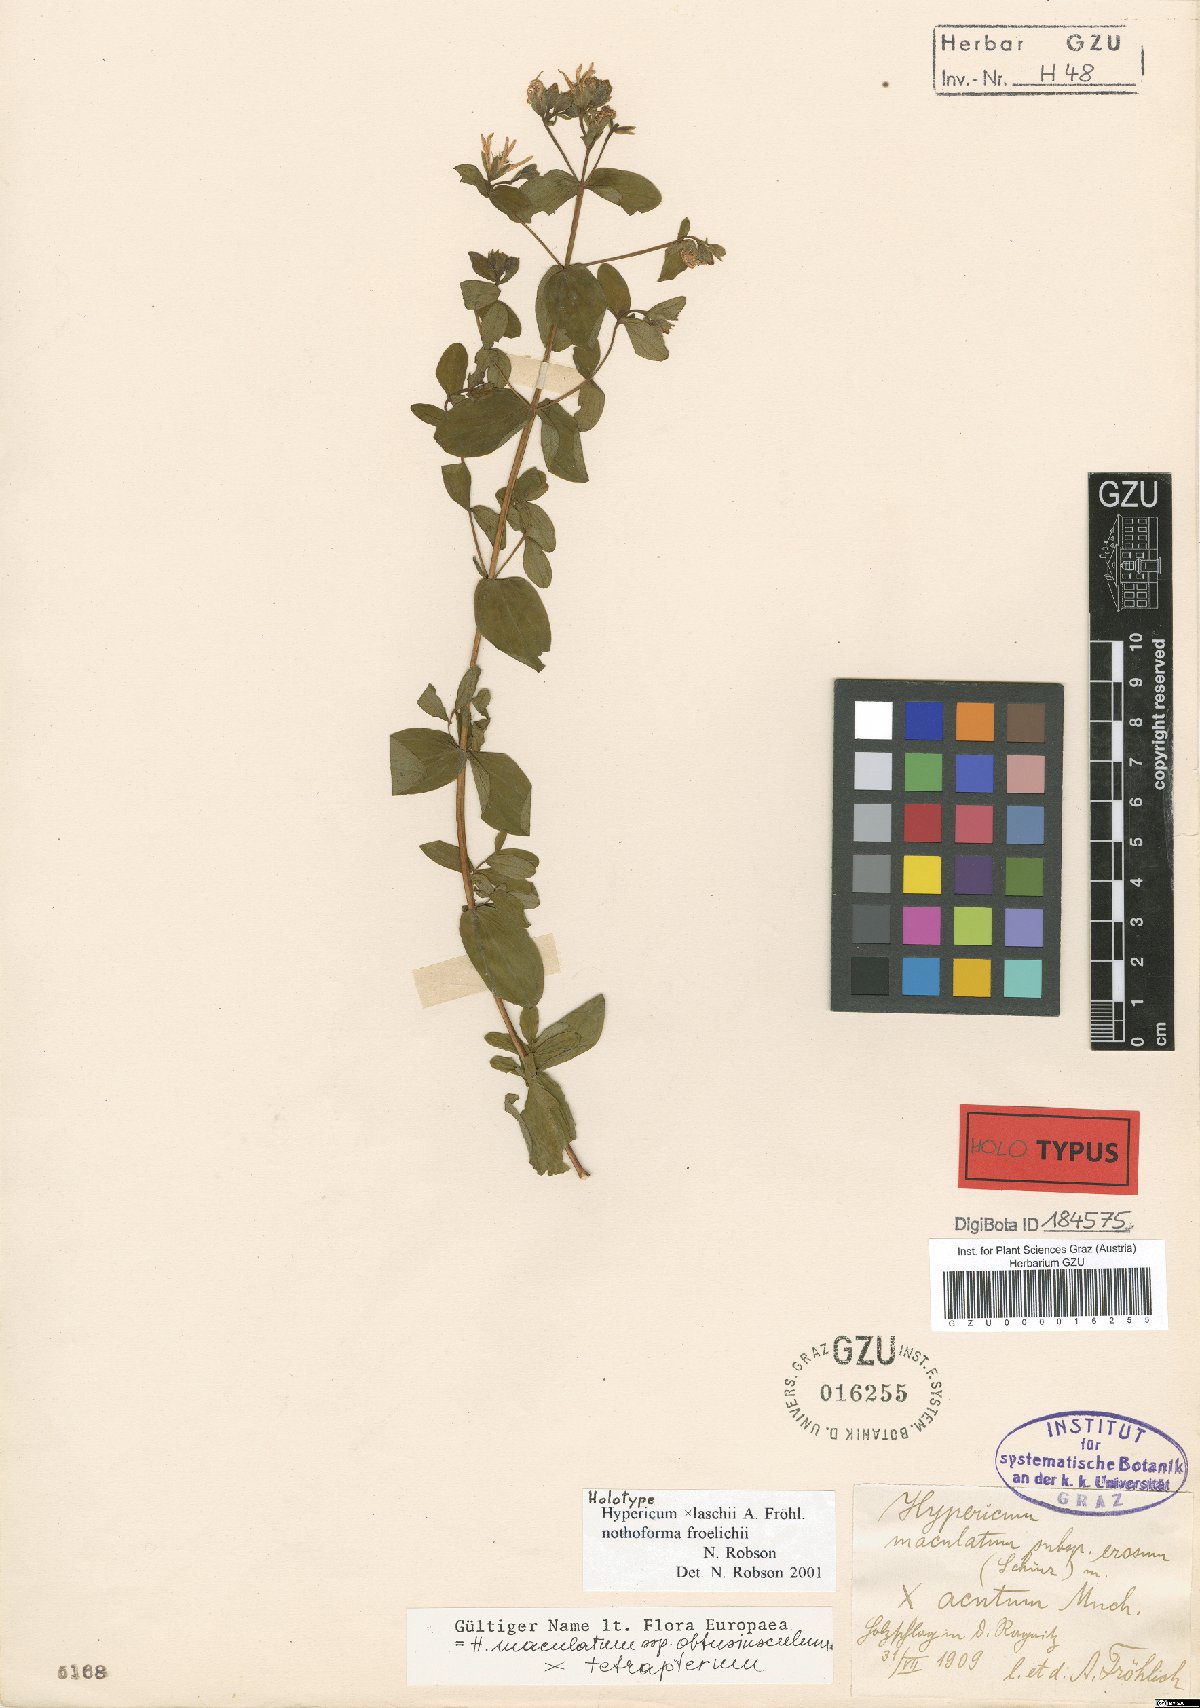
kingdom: Plantae
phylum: Tracheophyta
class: Magnoliopsida
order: Malpighiales
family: Clusiaceae
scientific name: Clusiaceae
